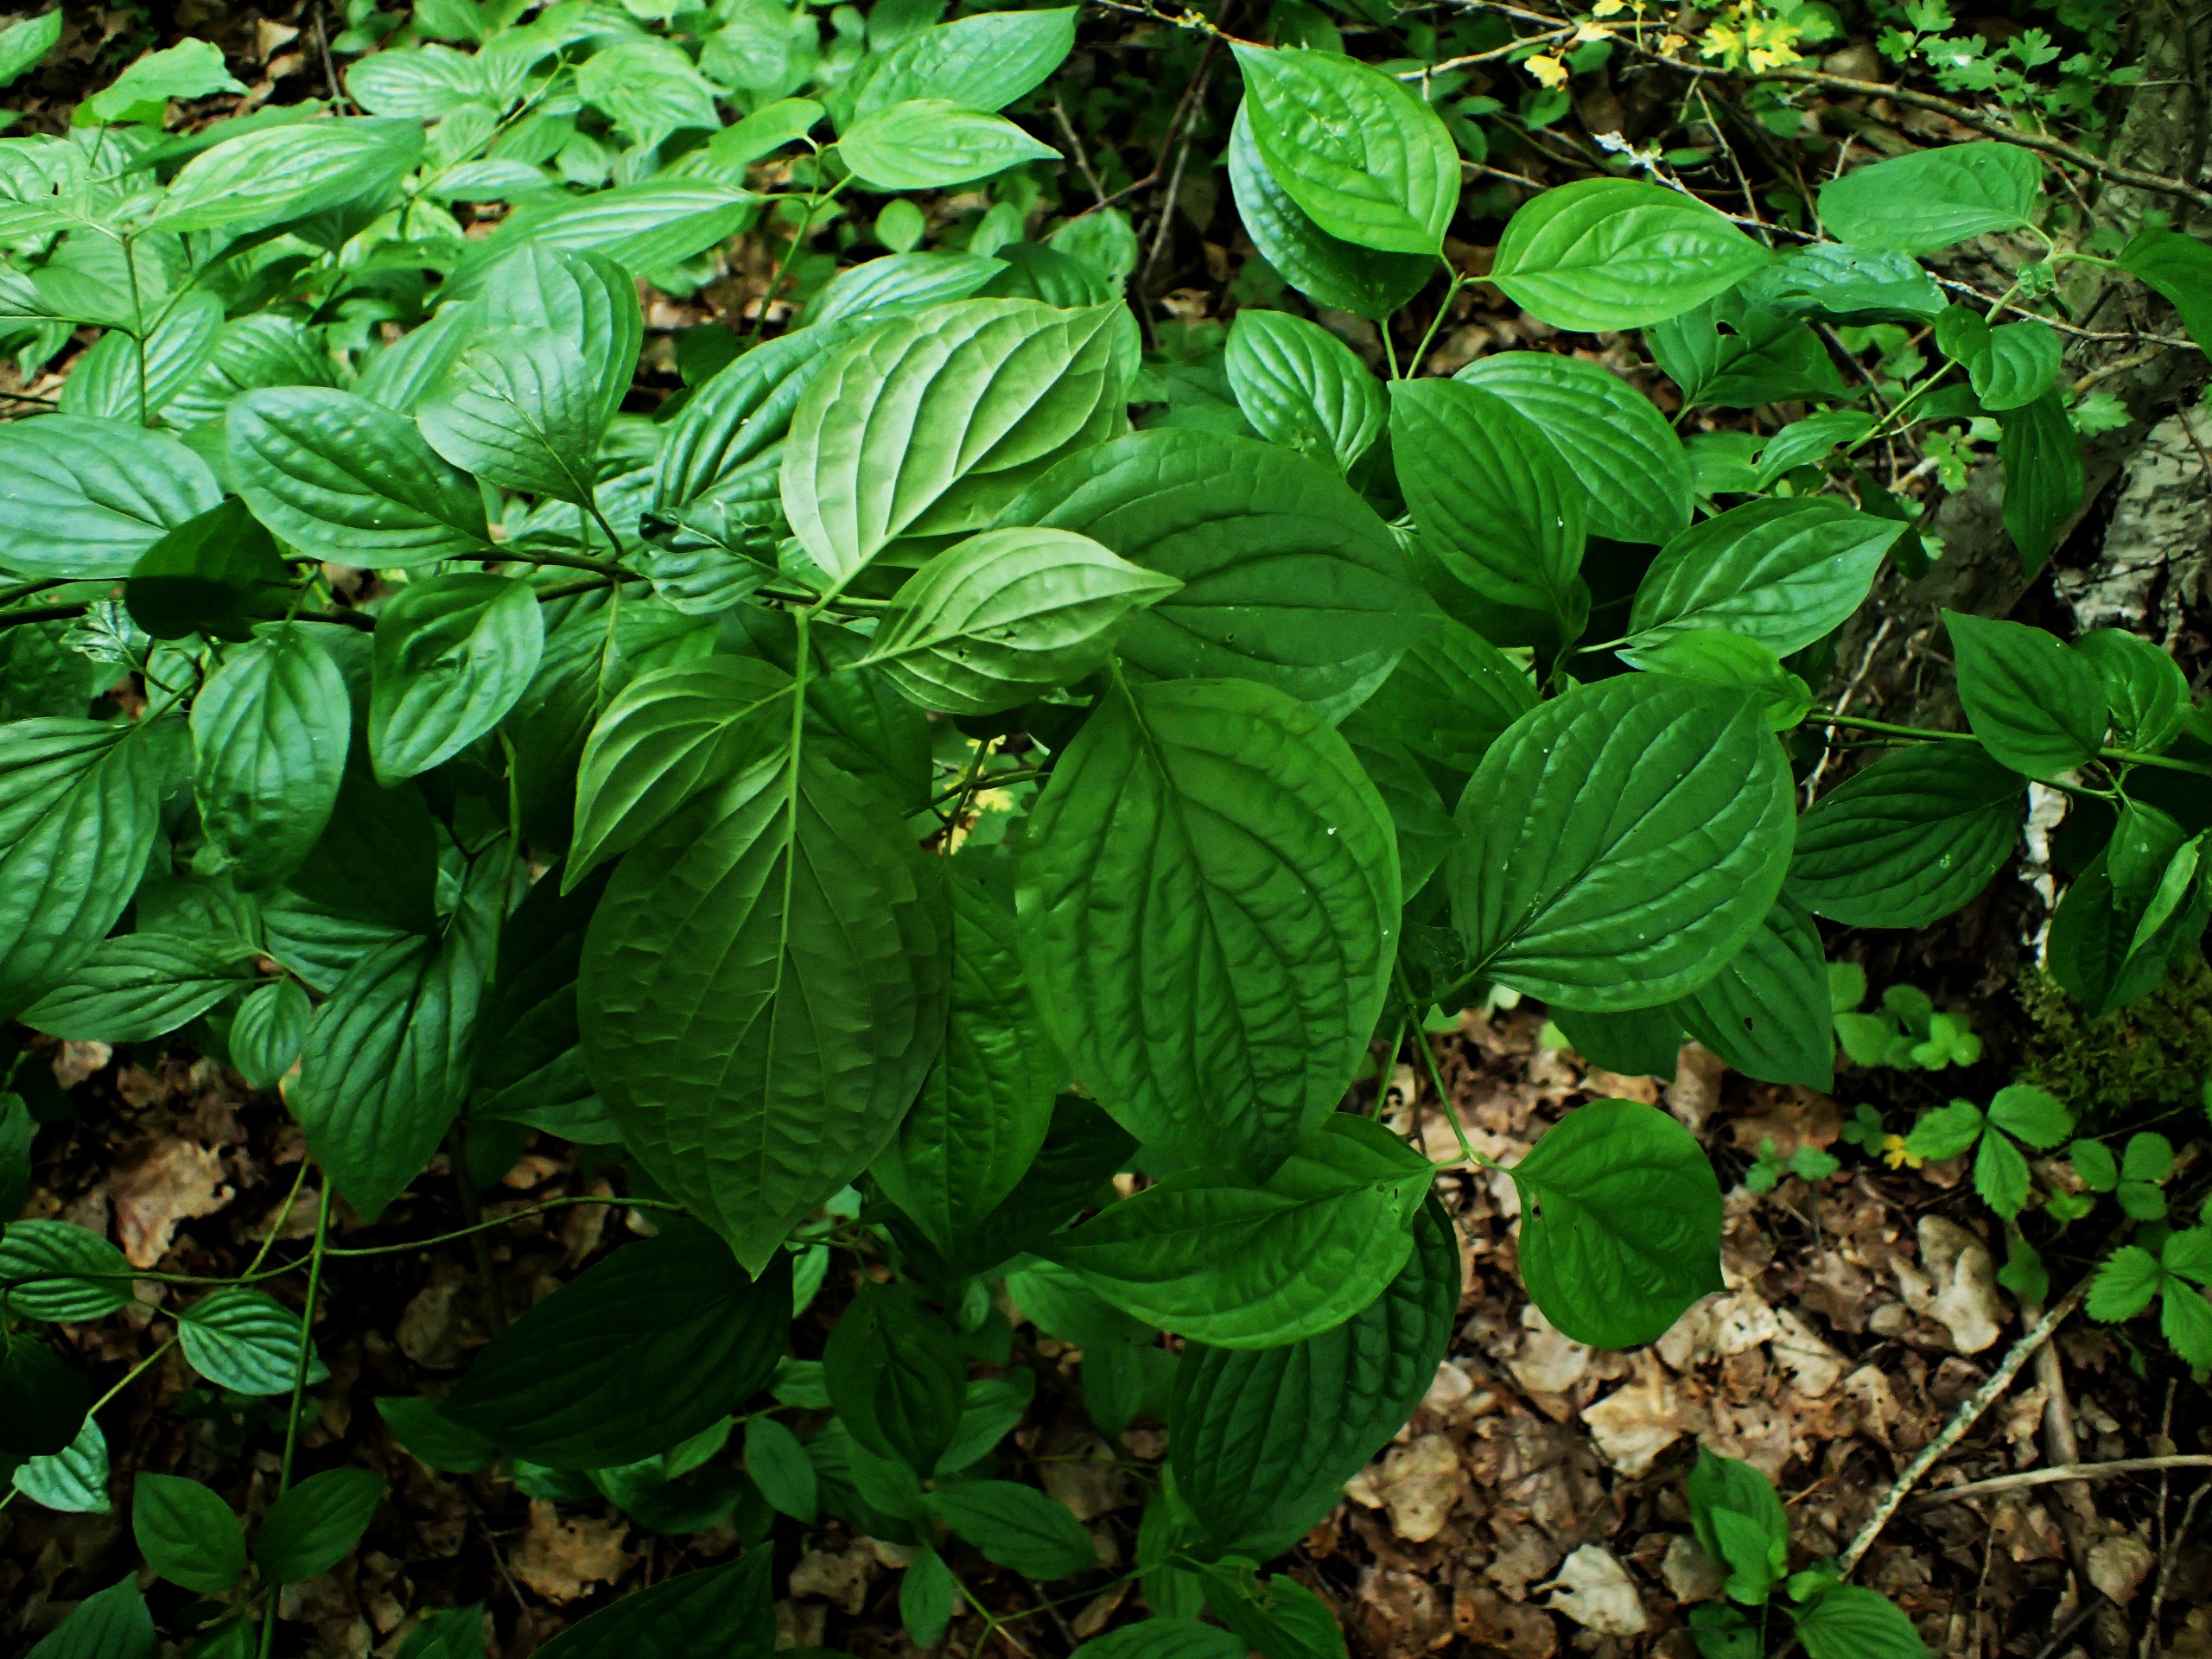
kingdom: Plantae
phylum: Tracheophyta
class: Magnoliopsida
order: Cornales
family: Cornaceae
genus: Cornus
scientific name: Cornus sanguinea
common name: Rød kornel
